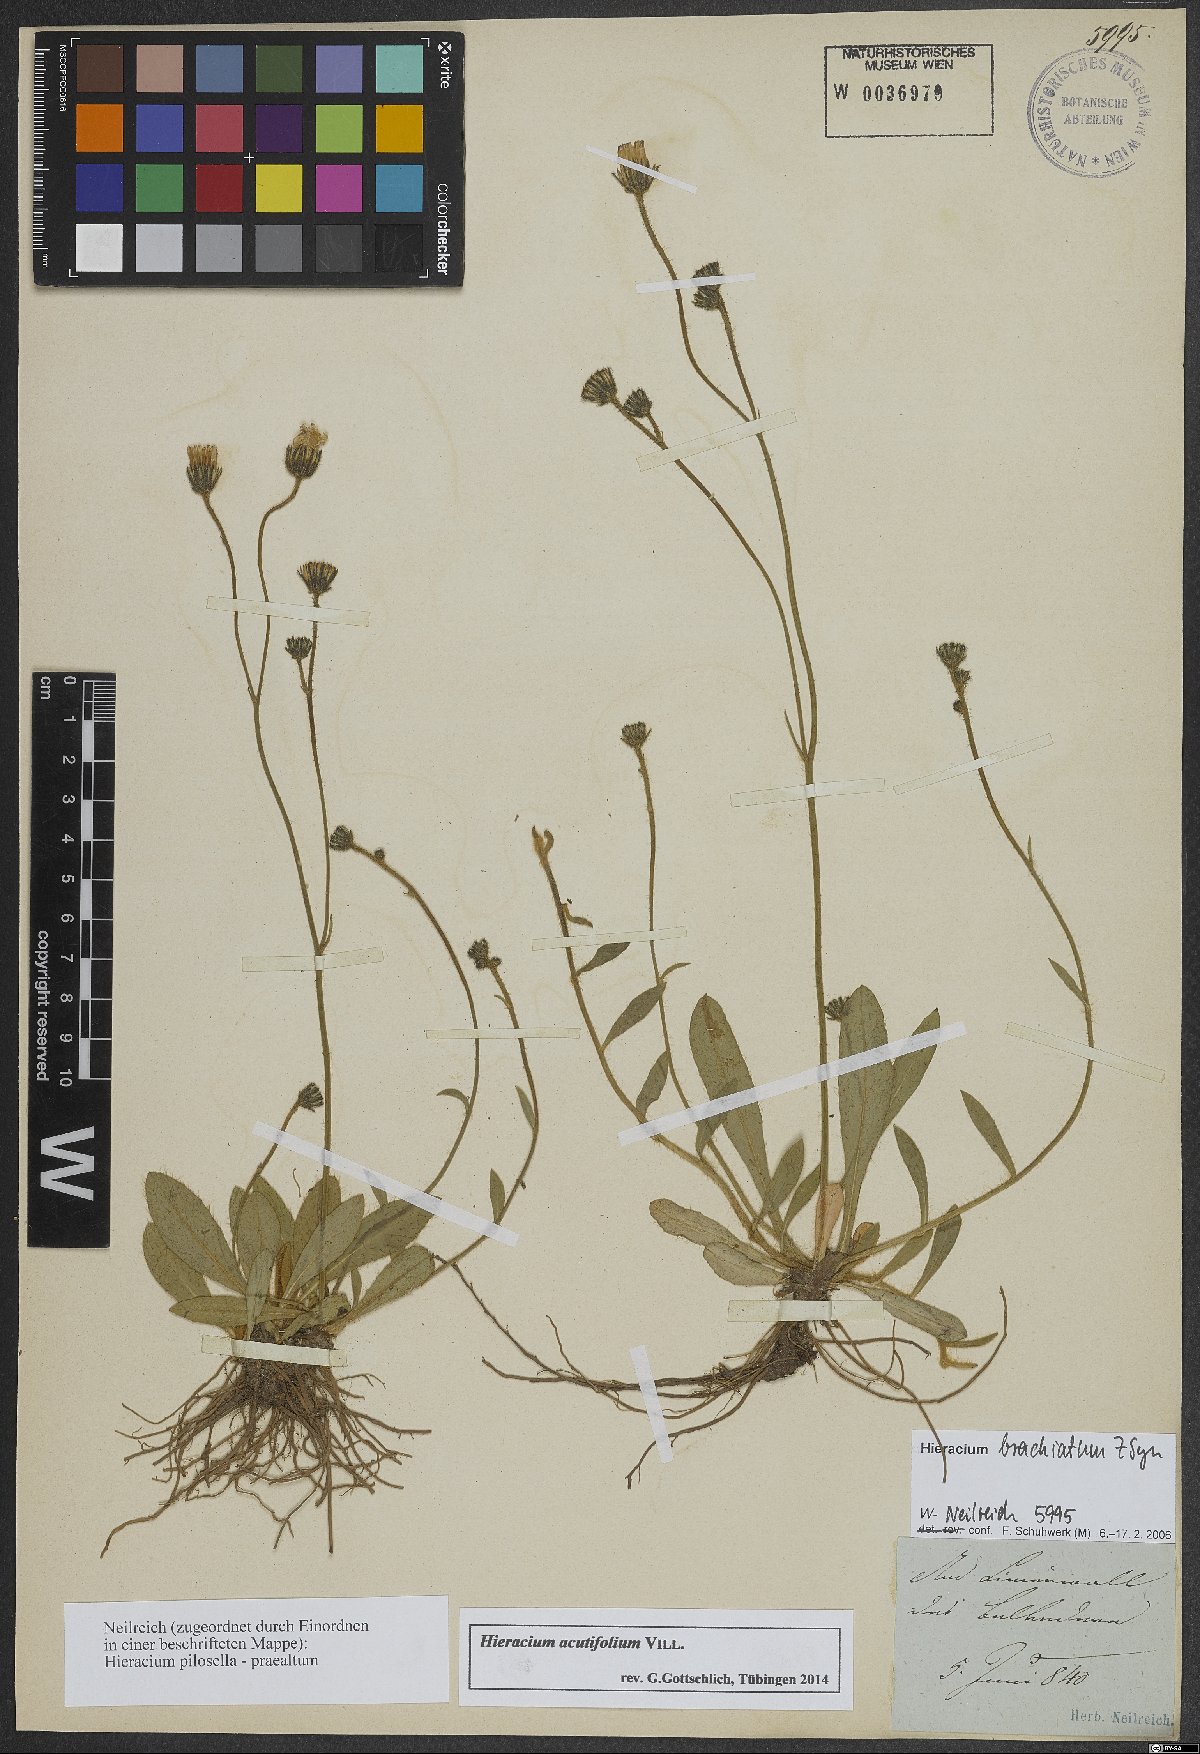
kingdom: Plantae
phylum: Tracheophyta
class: Magnoliopsida
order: Asterales
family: Asteraceae
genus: Pilosella
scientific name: Pilosella acutifolia
